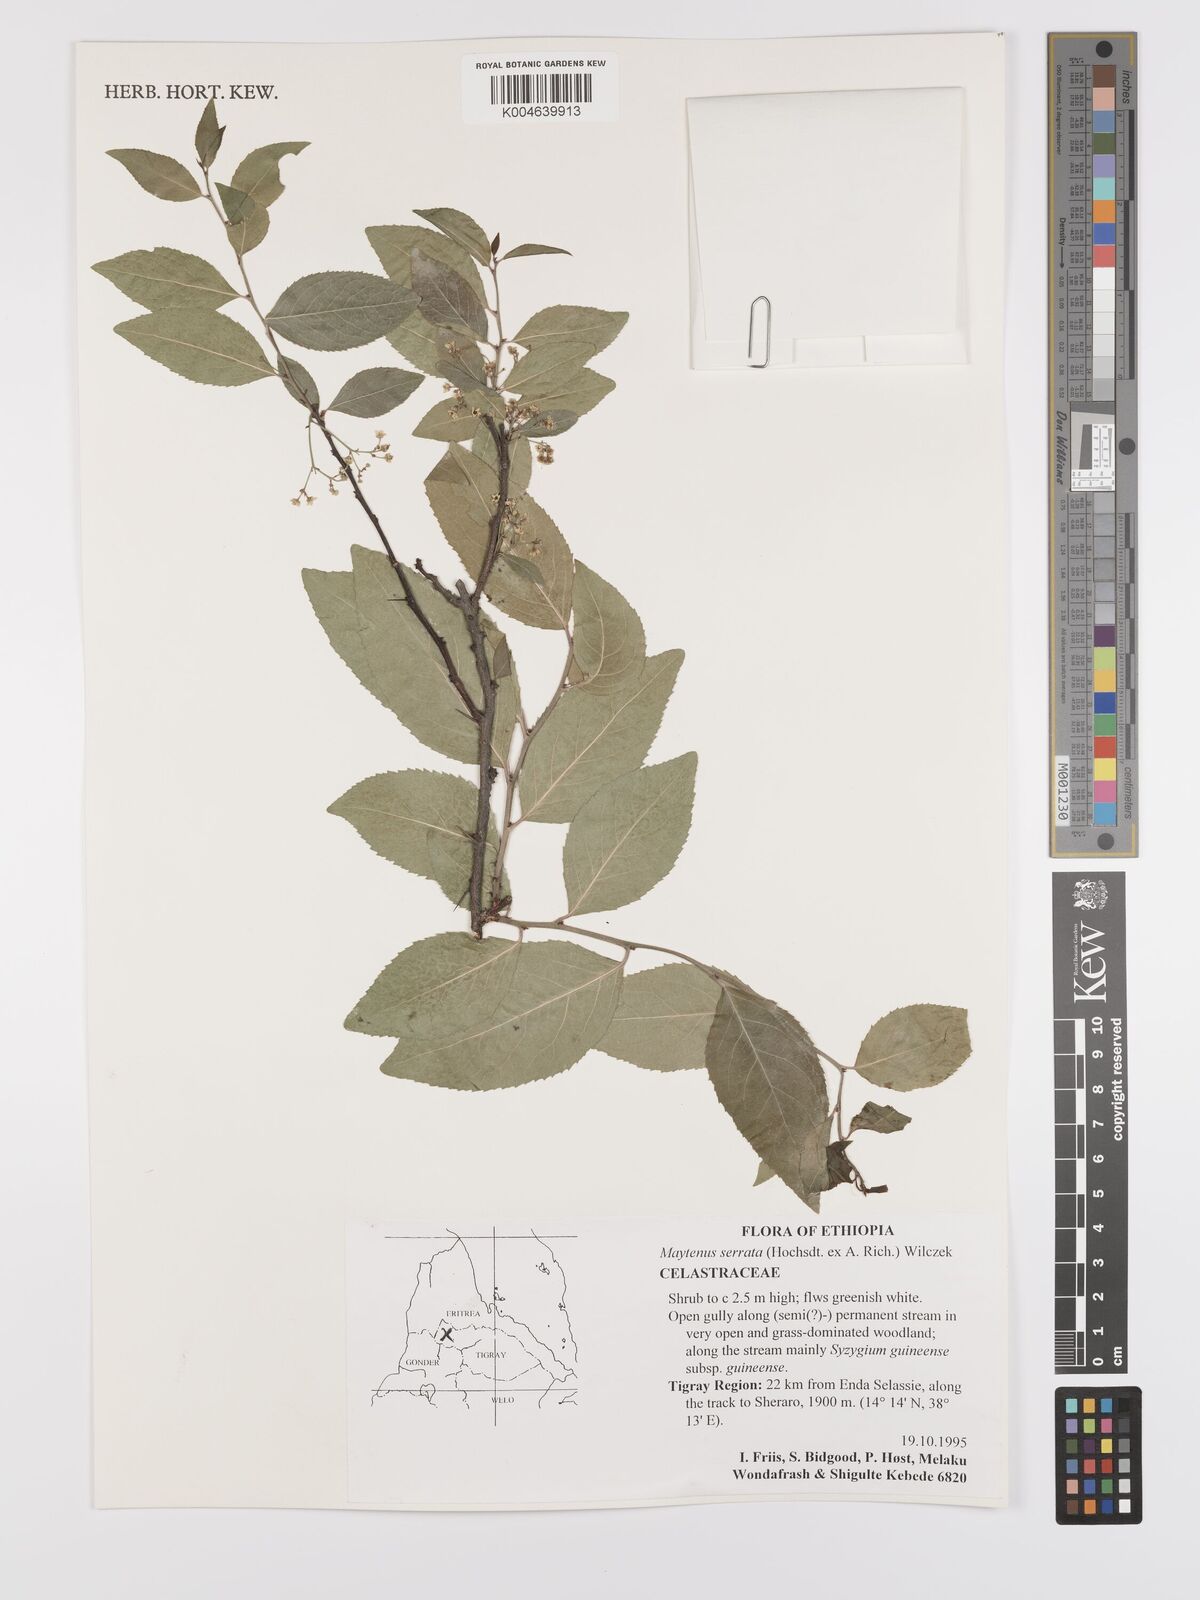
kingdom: Plantae
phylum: Tracheophyta
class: Magnoliopsida
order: Celastrales
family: Celastraceae
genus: Gymnosporia
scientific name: Gymnosporia serrata
